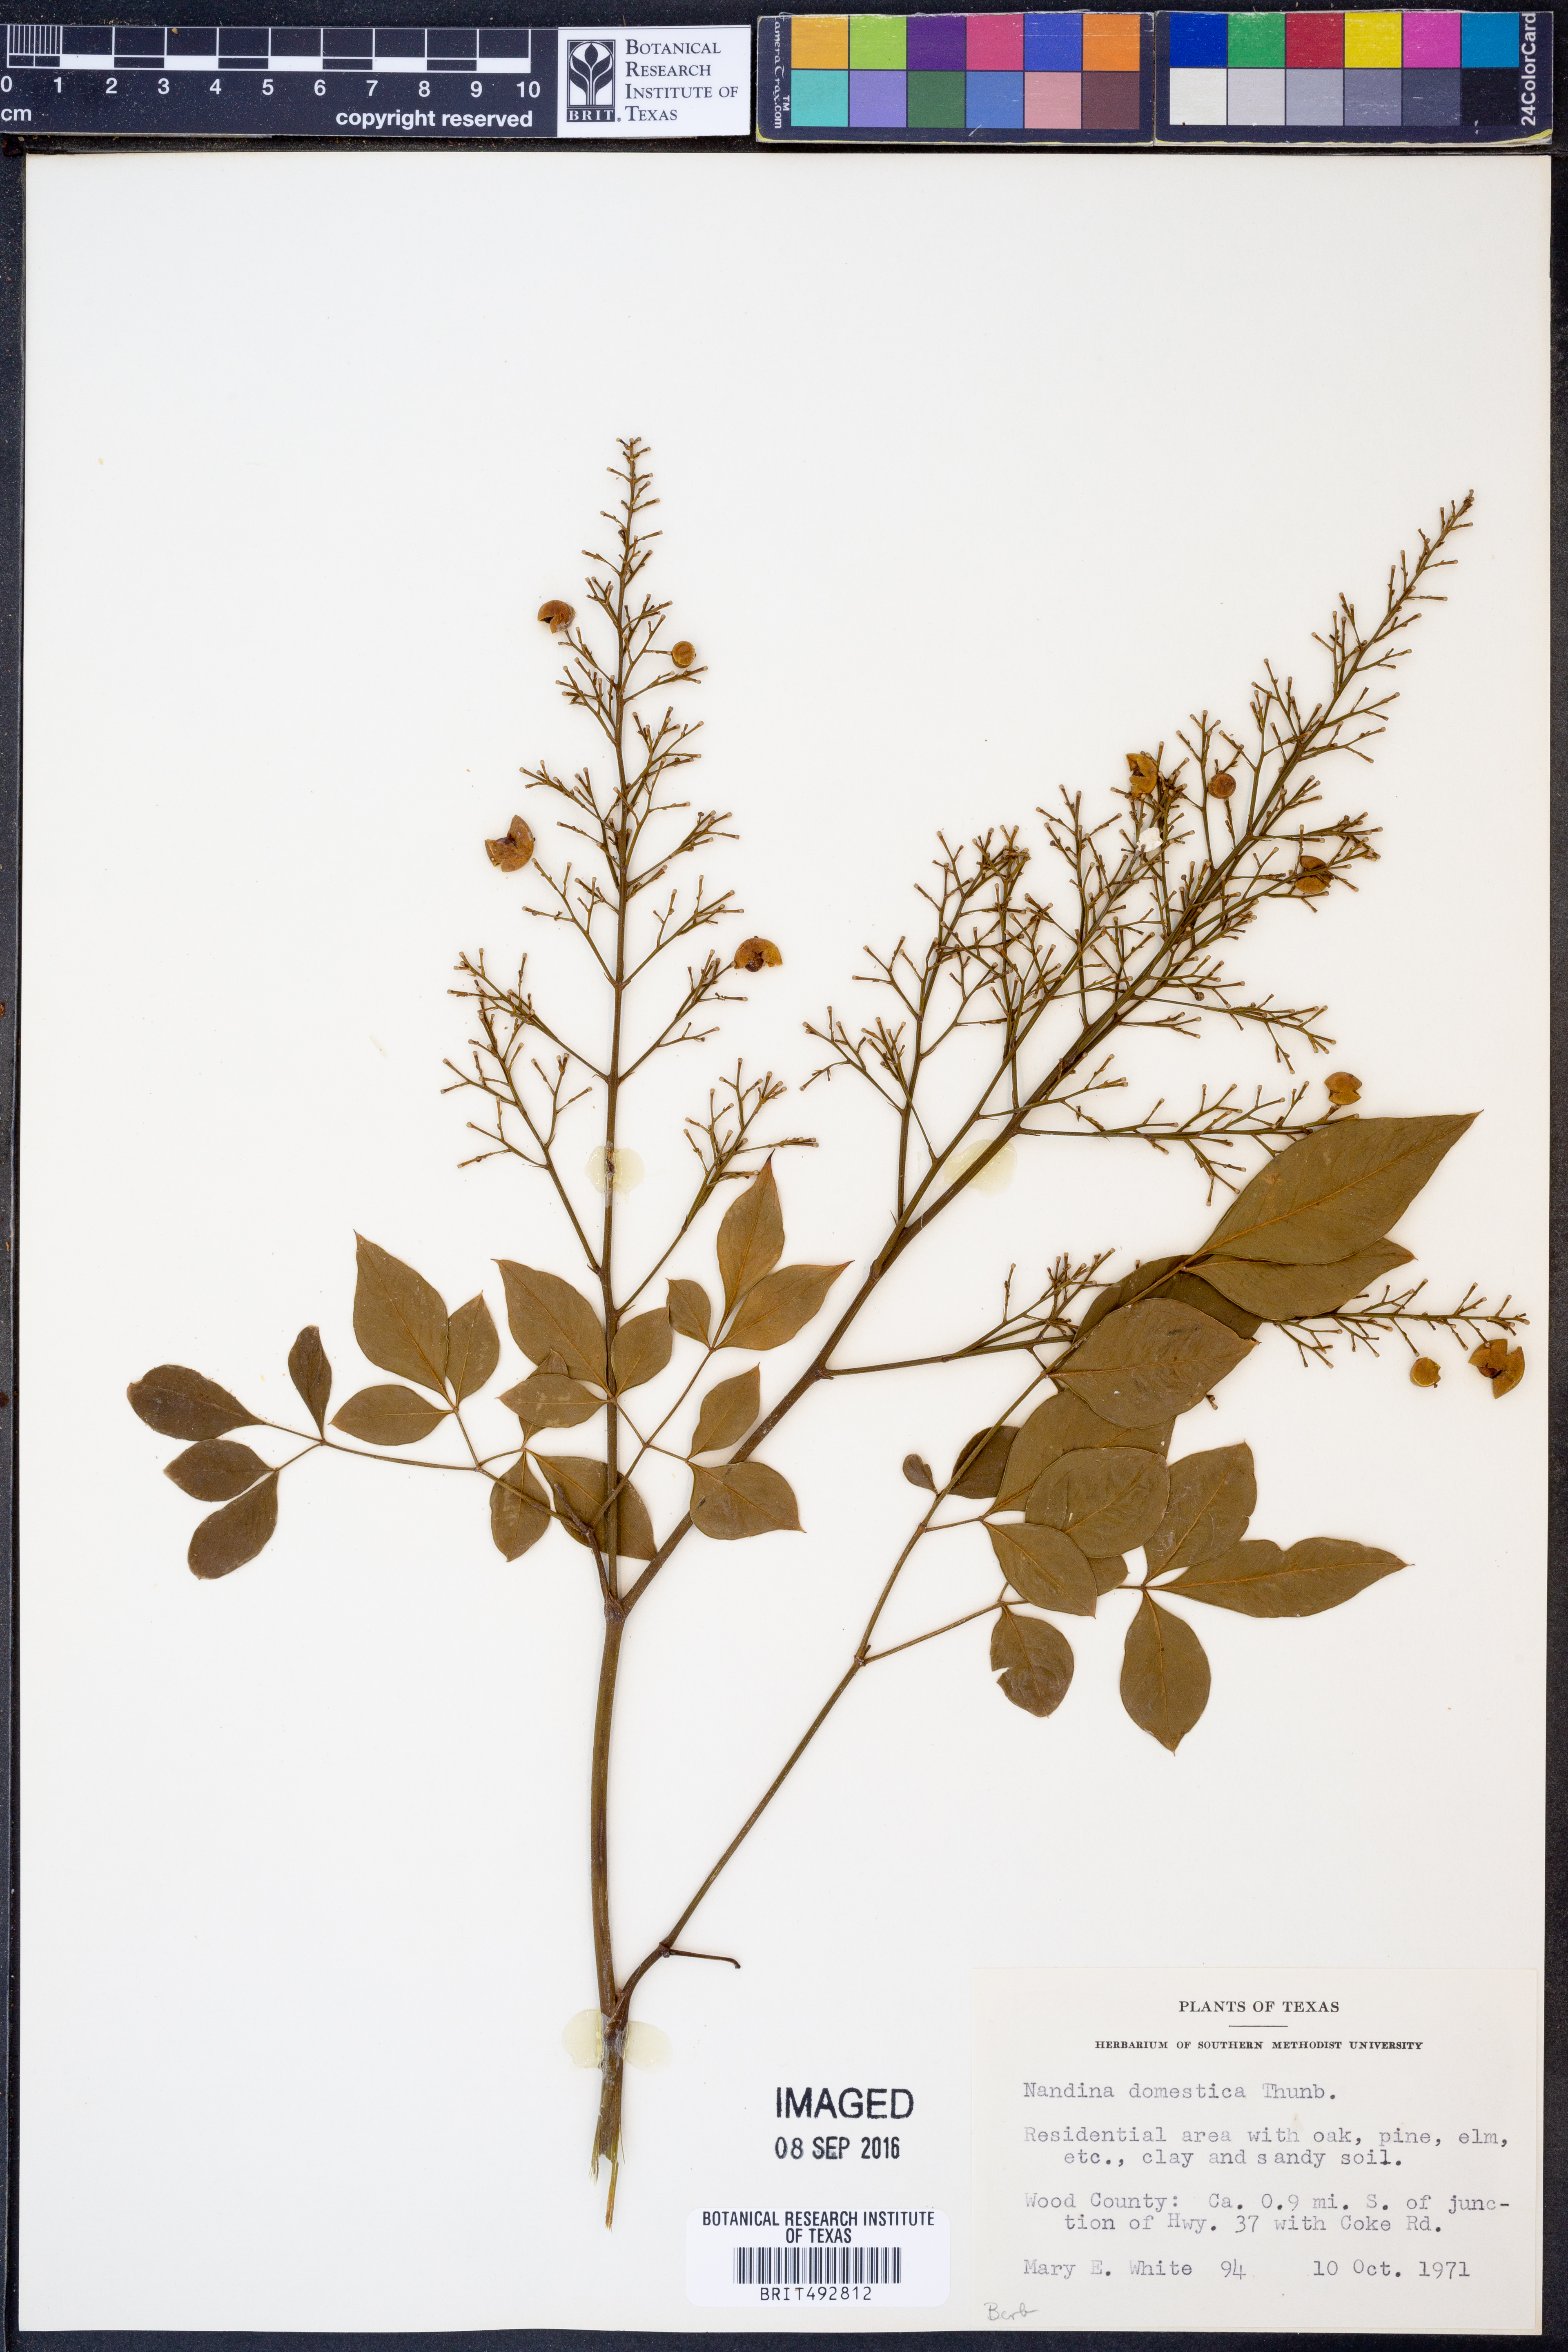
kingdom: Plantae
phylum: Tracheophyta
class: Magnoliopsida
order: Ranunculales
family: Berberidaceae
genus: Nandina
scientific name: Nandina domestica
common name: Sacred bamboo
